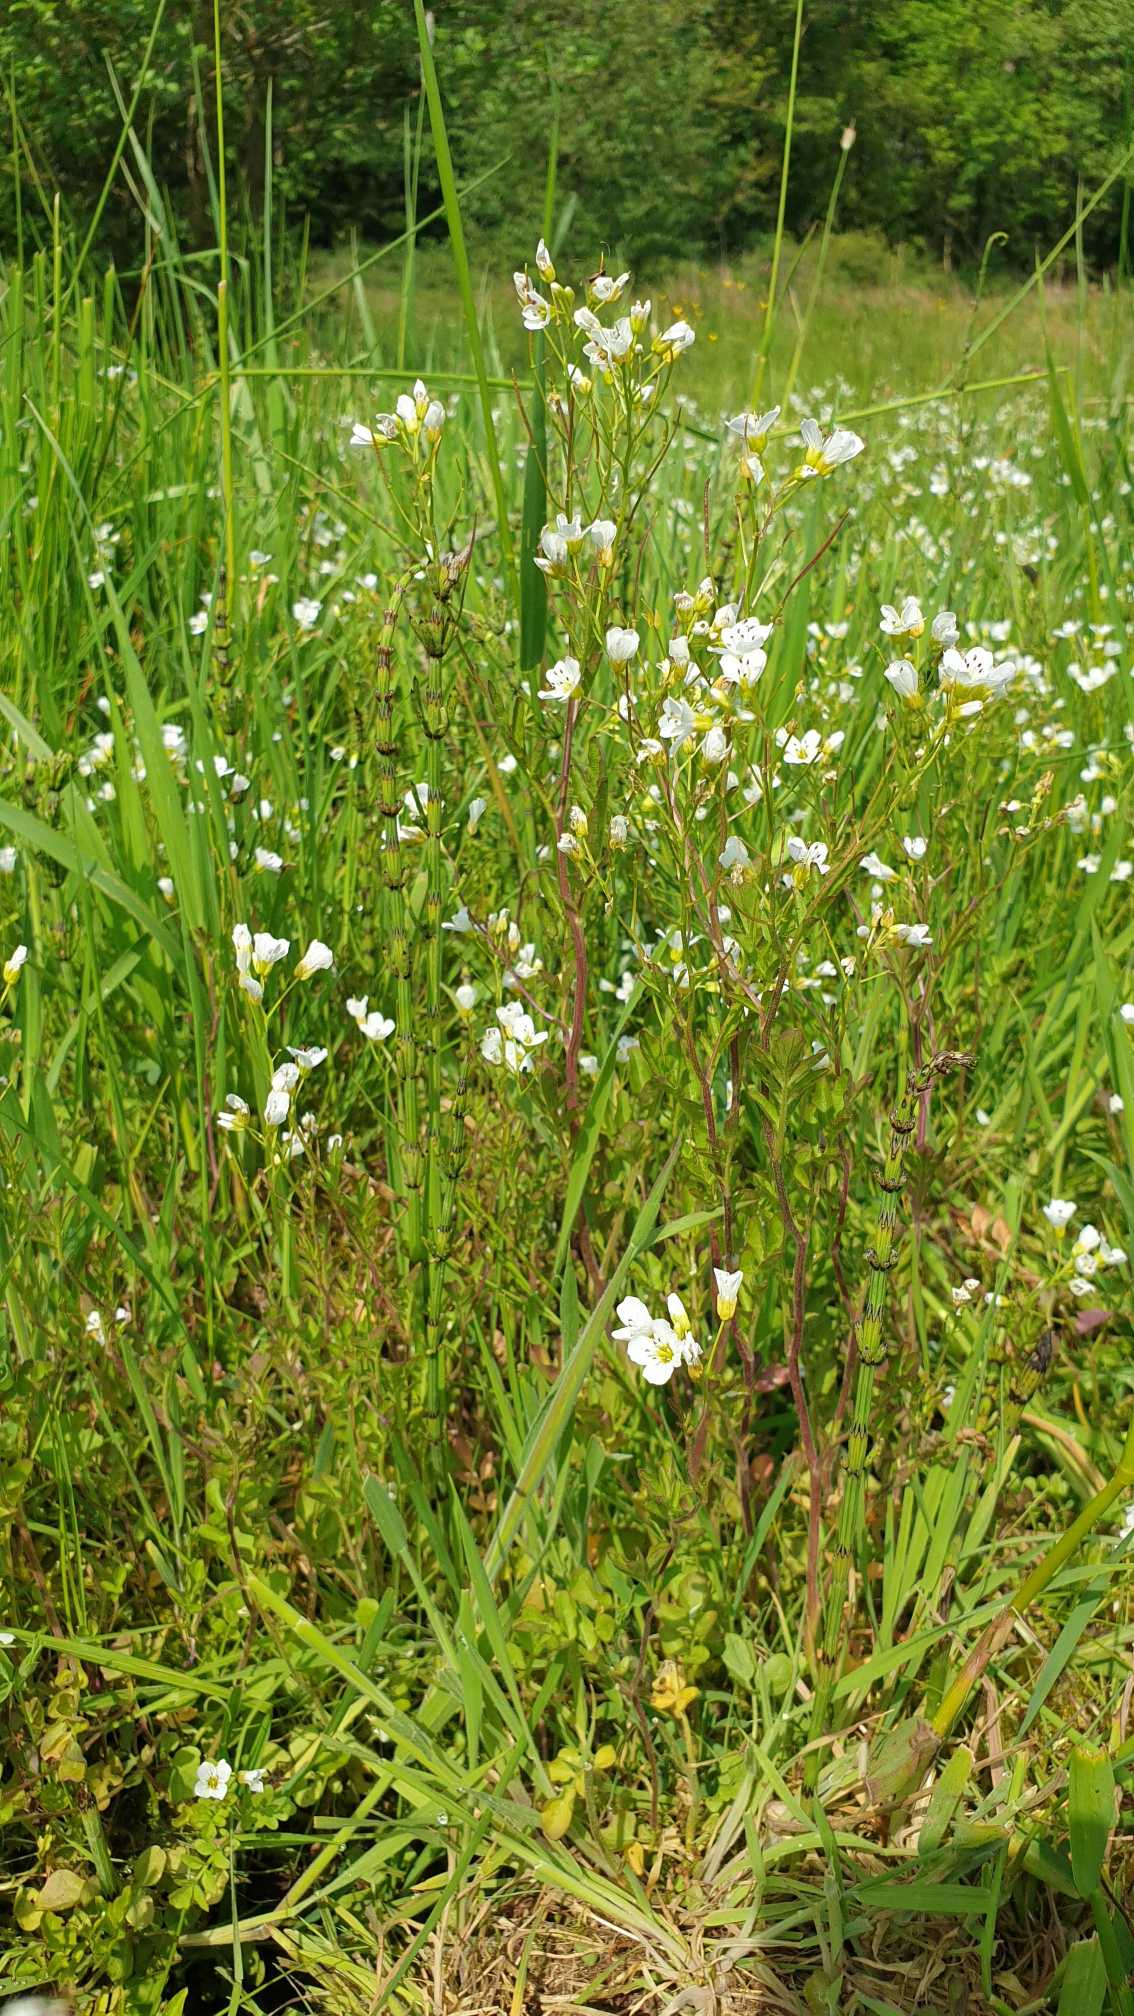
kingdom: Plantae
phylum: Tracheophyta
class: Magnoliopsida
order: Brassicales
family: Brassicaceae
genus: Cardamine
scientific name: Cardamine amara
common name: Vandkarse
